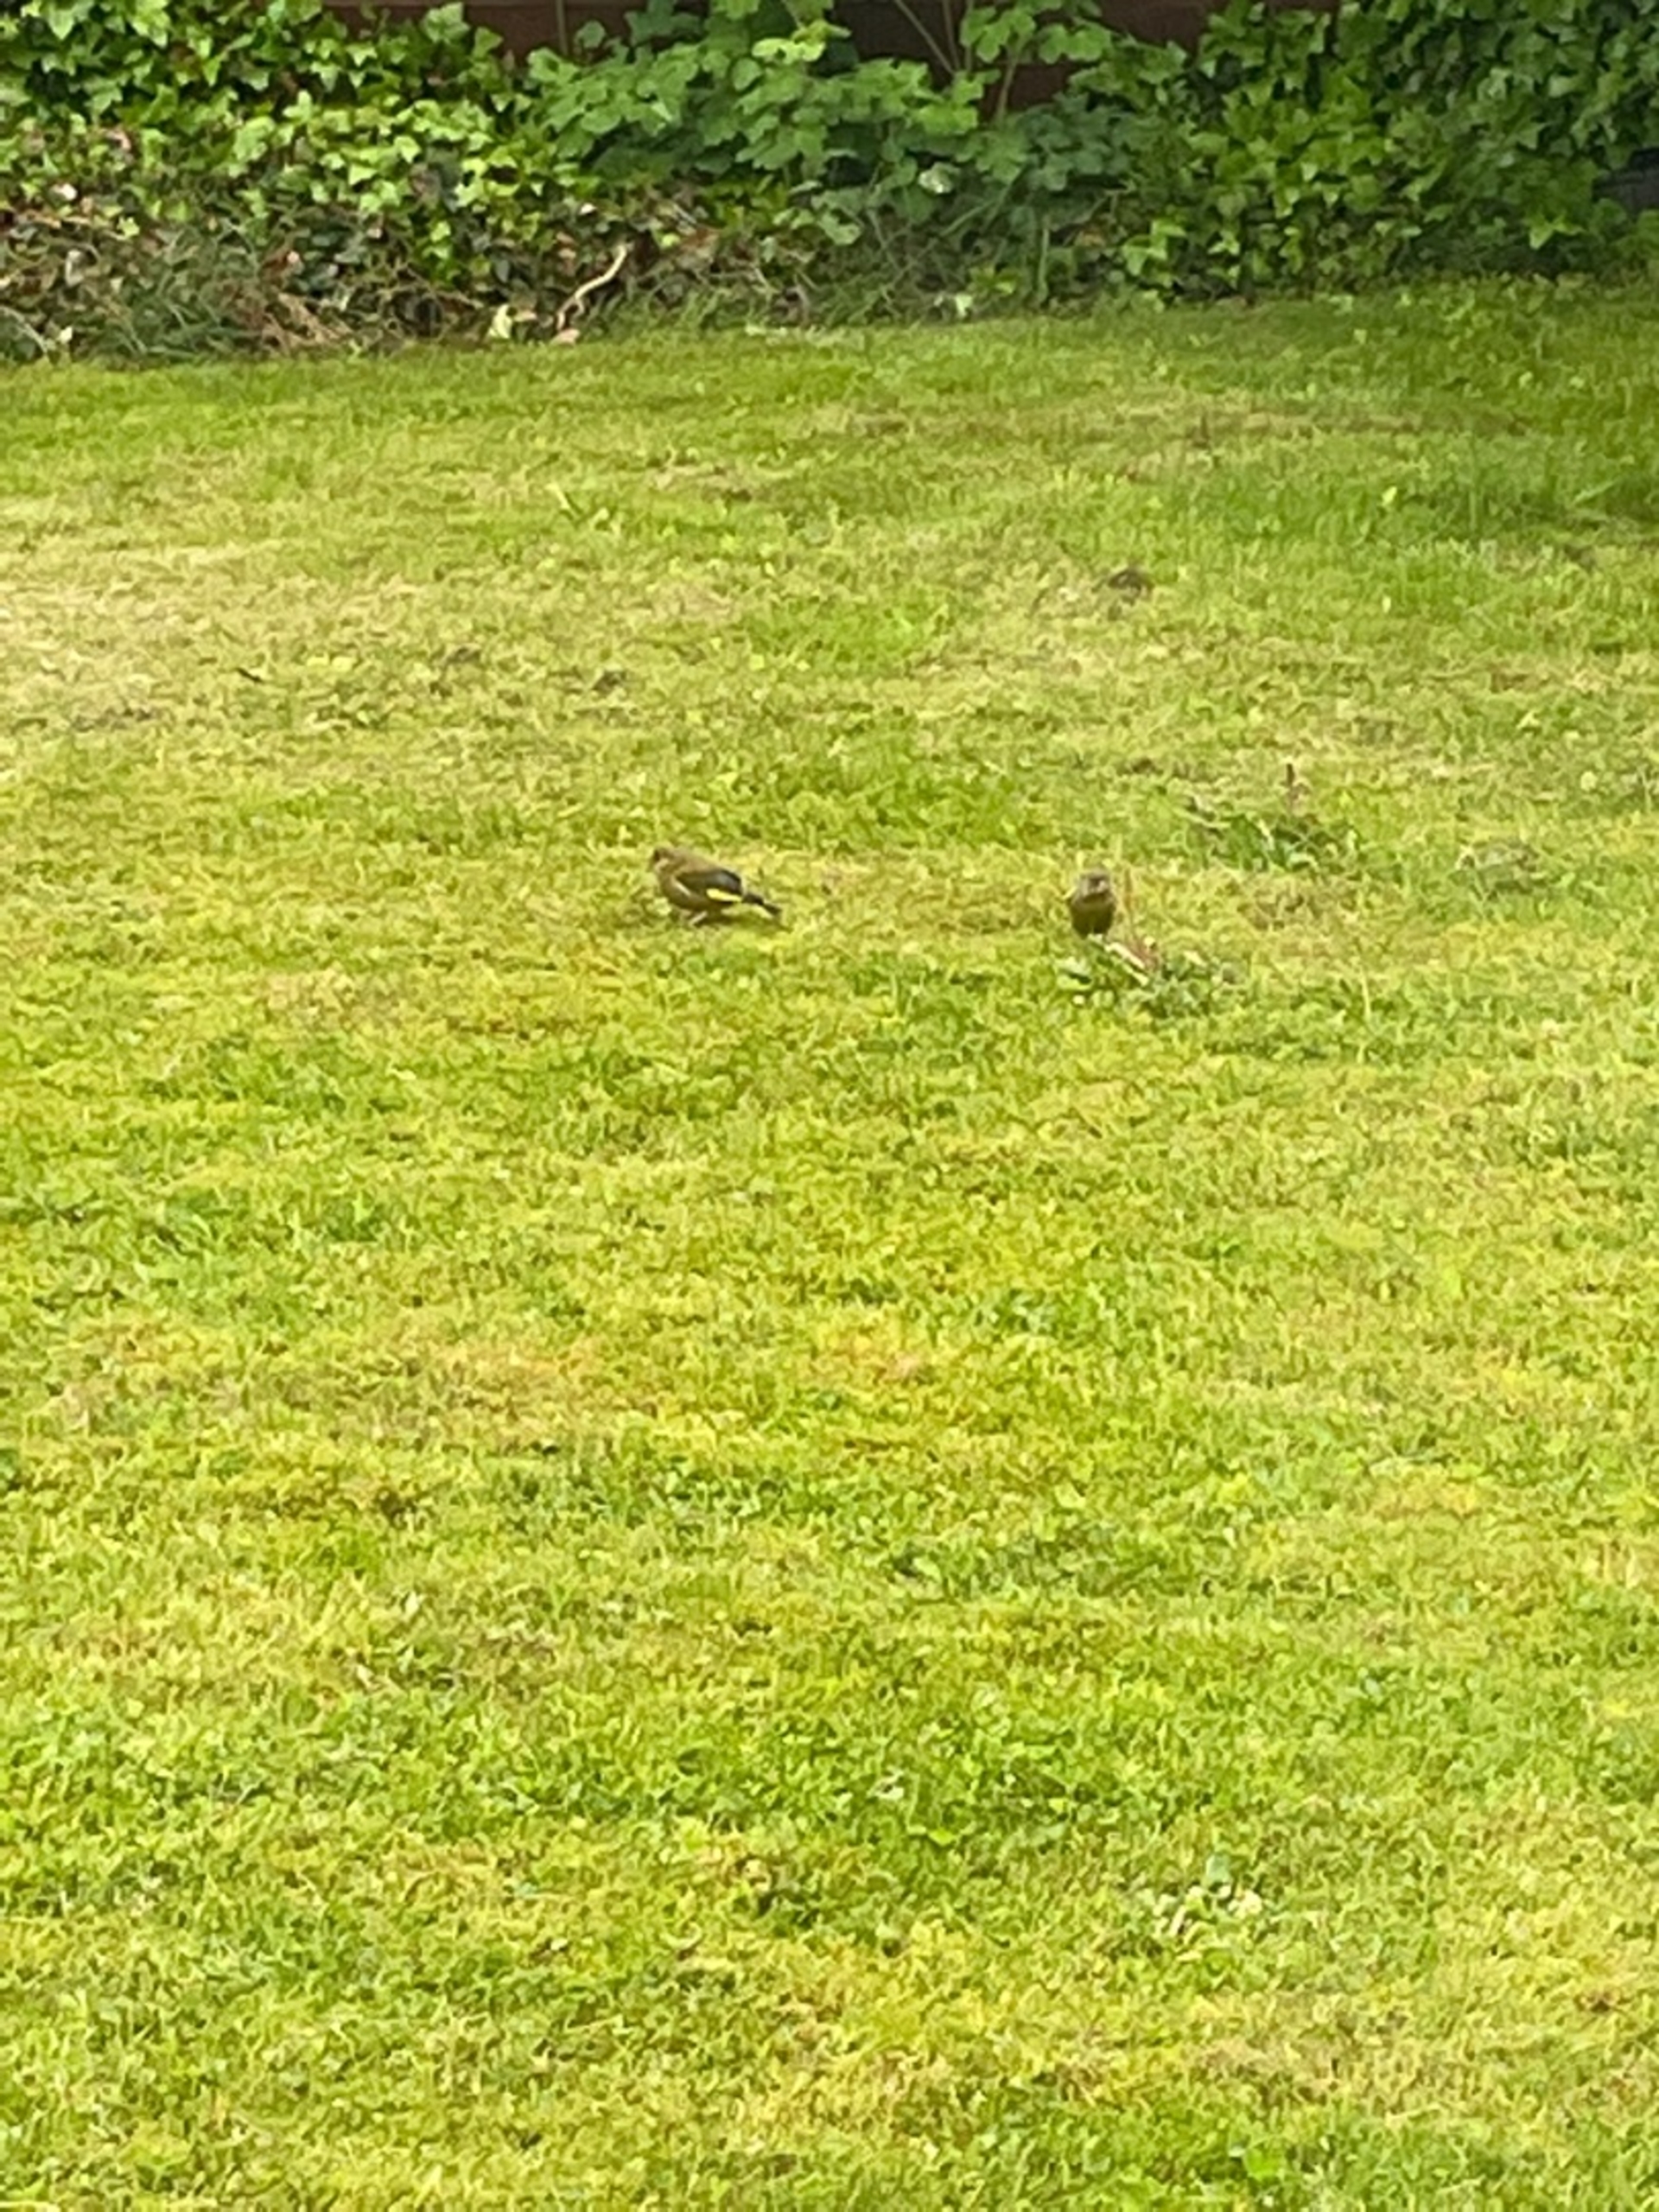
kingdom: Plantae
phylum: Tracheophyta
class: Liliopsida
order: Poales
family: Poaceae
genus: Chloris
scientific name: Chloris chloris
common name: Grønirisk
